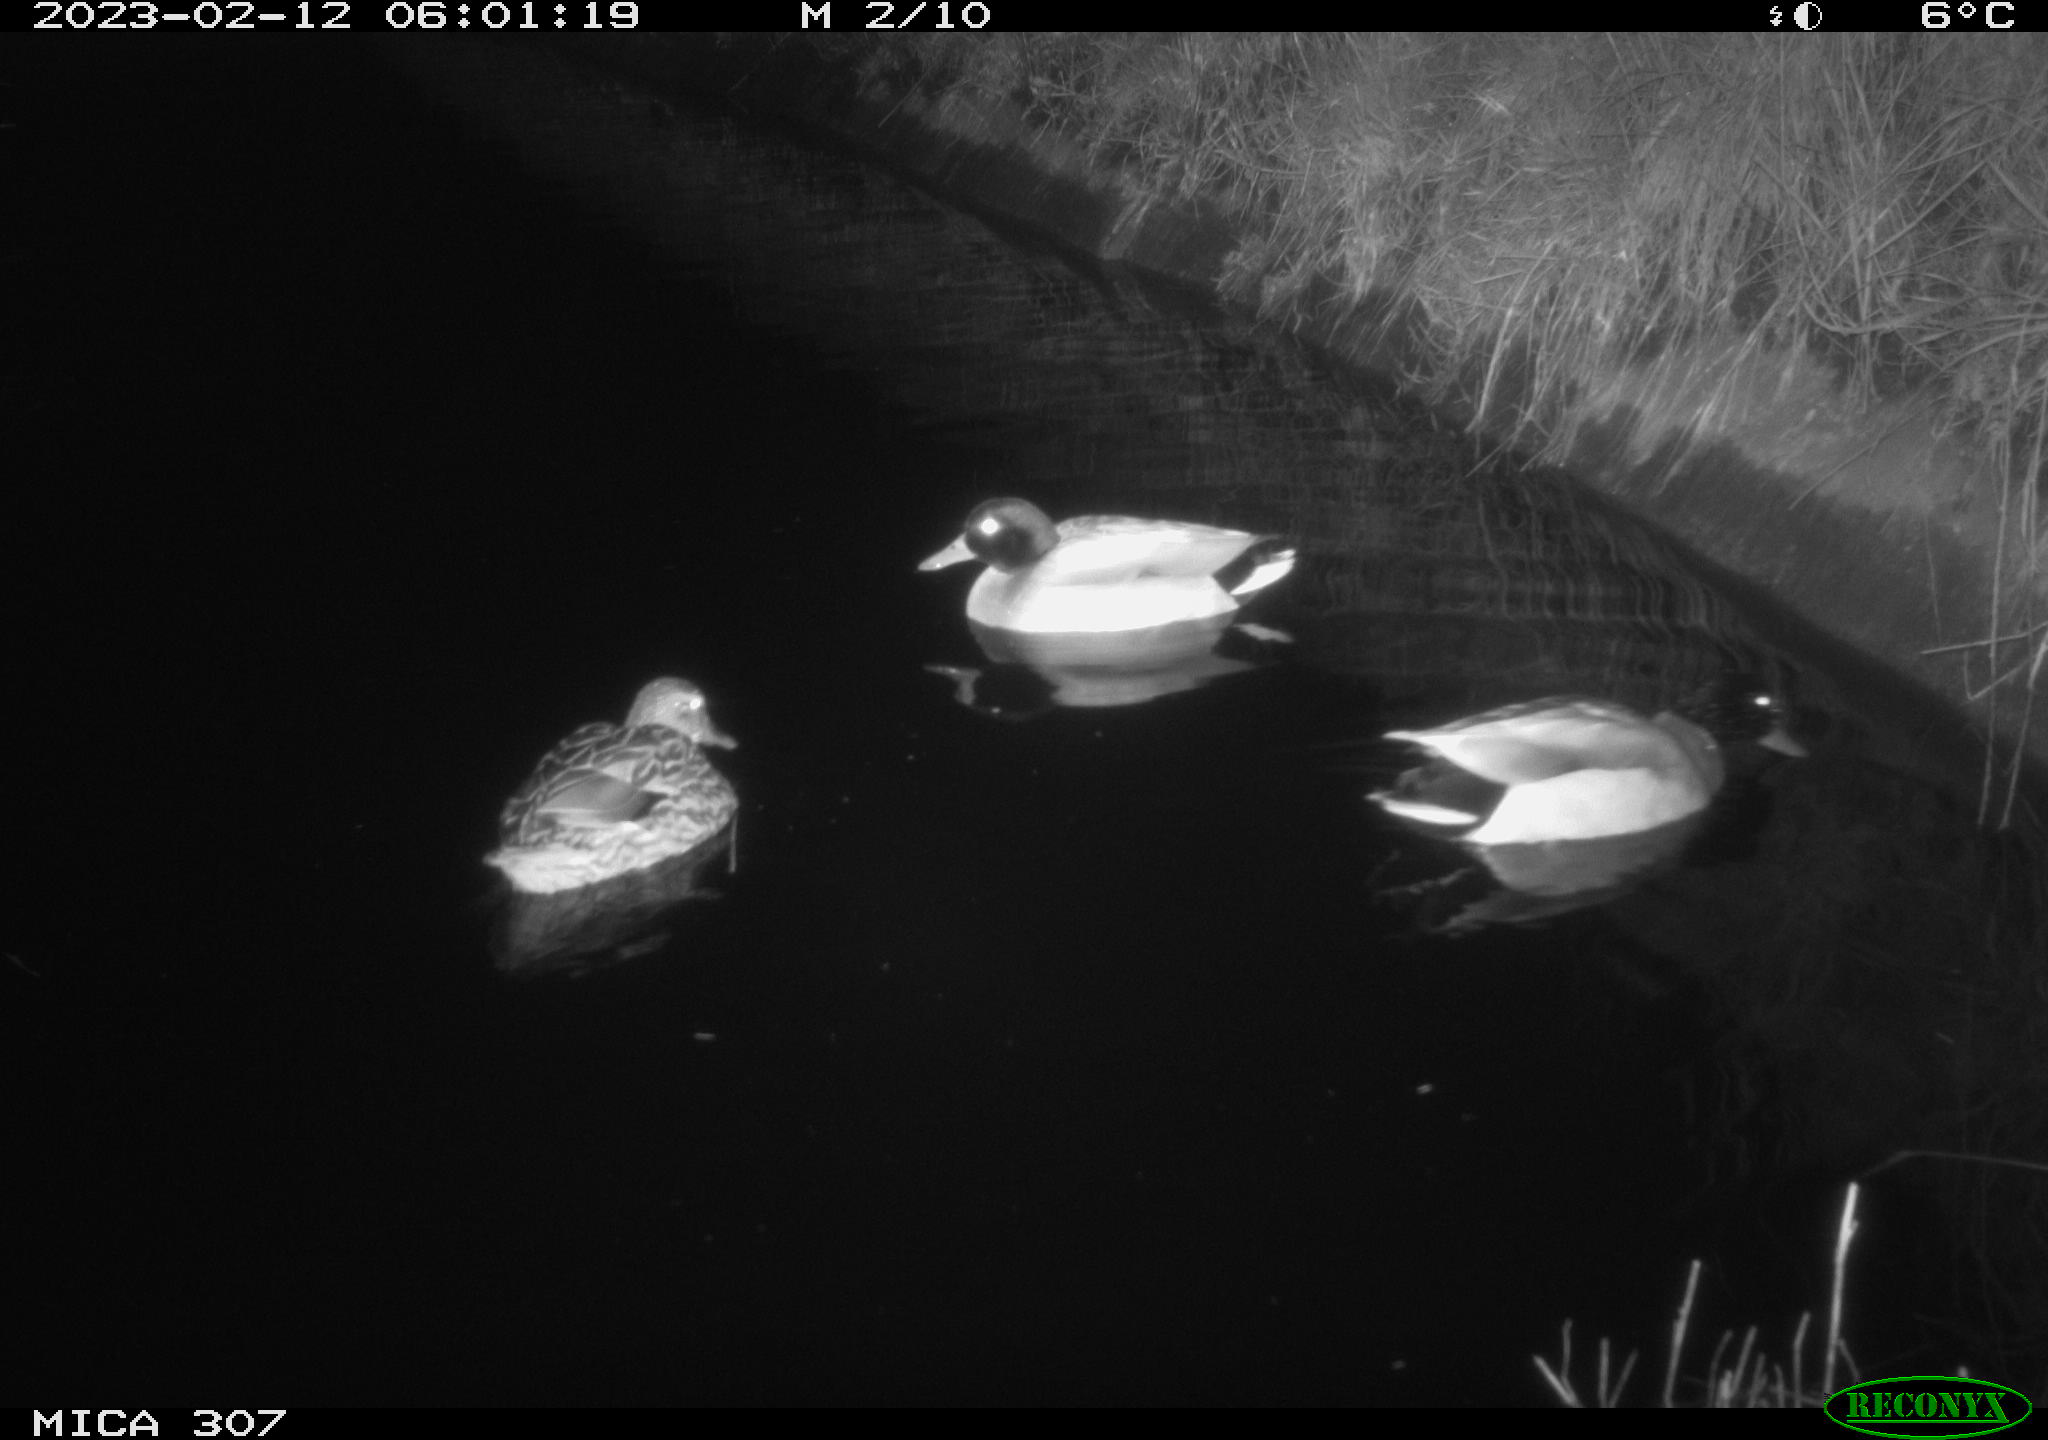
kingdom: Animalia
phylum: Chordata
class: Mammalia
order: Rodentia
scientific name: Rodentia
